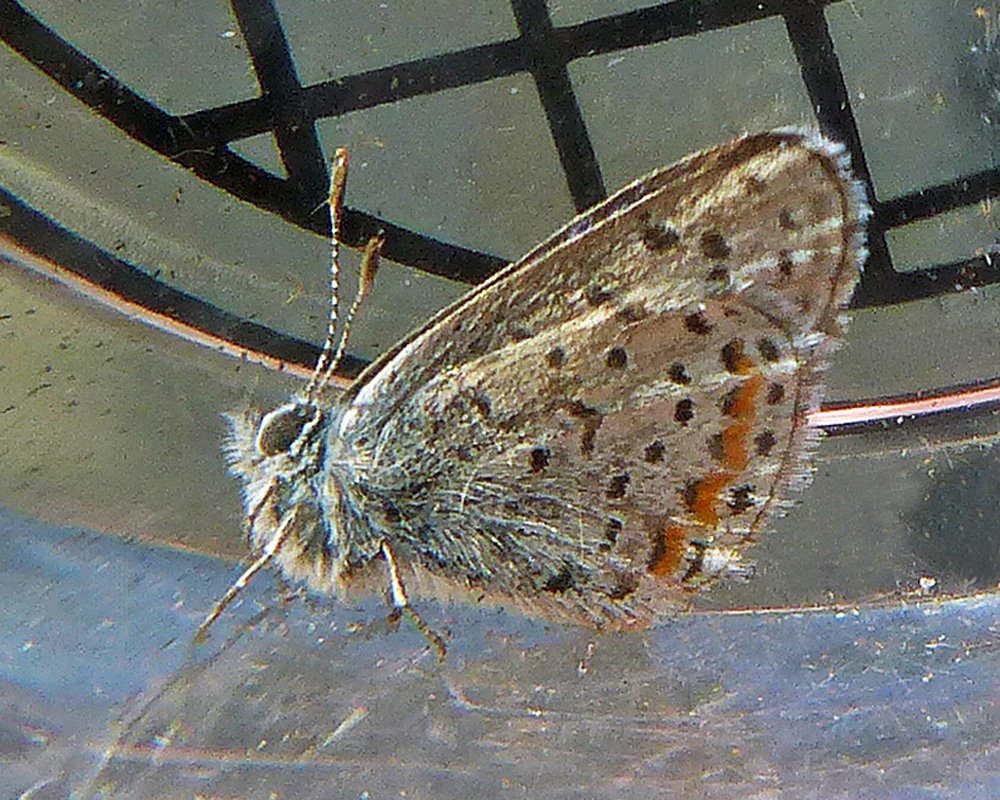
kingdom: Animalia
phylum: Arthropoda
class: Insecta
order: Lepidoptera
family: Lycaenidae
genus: Euphilotes
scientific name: Euphilotes enoptes
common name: Columbia Blue
